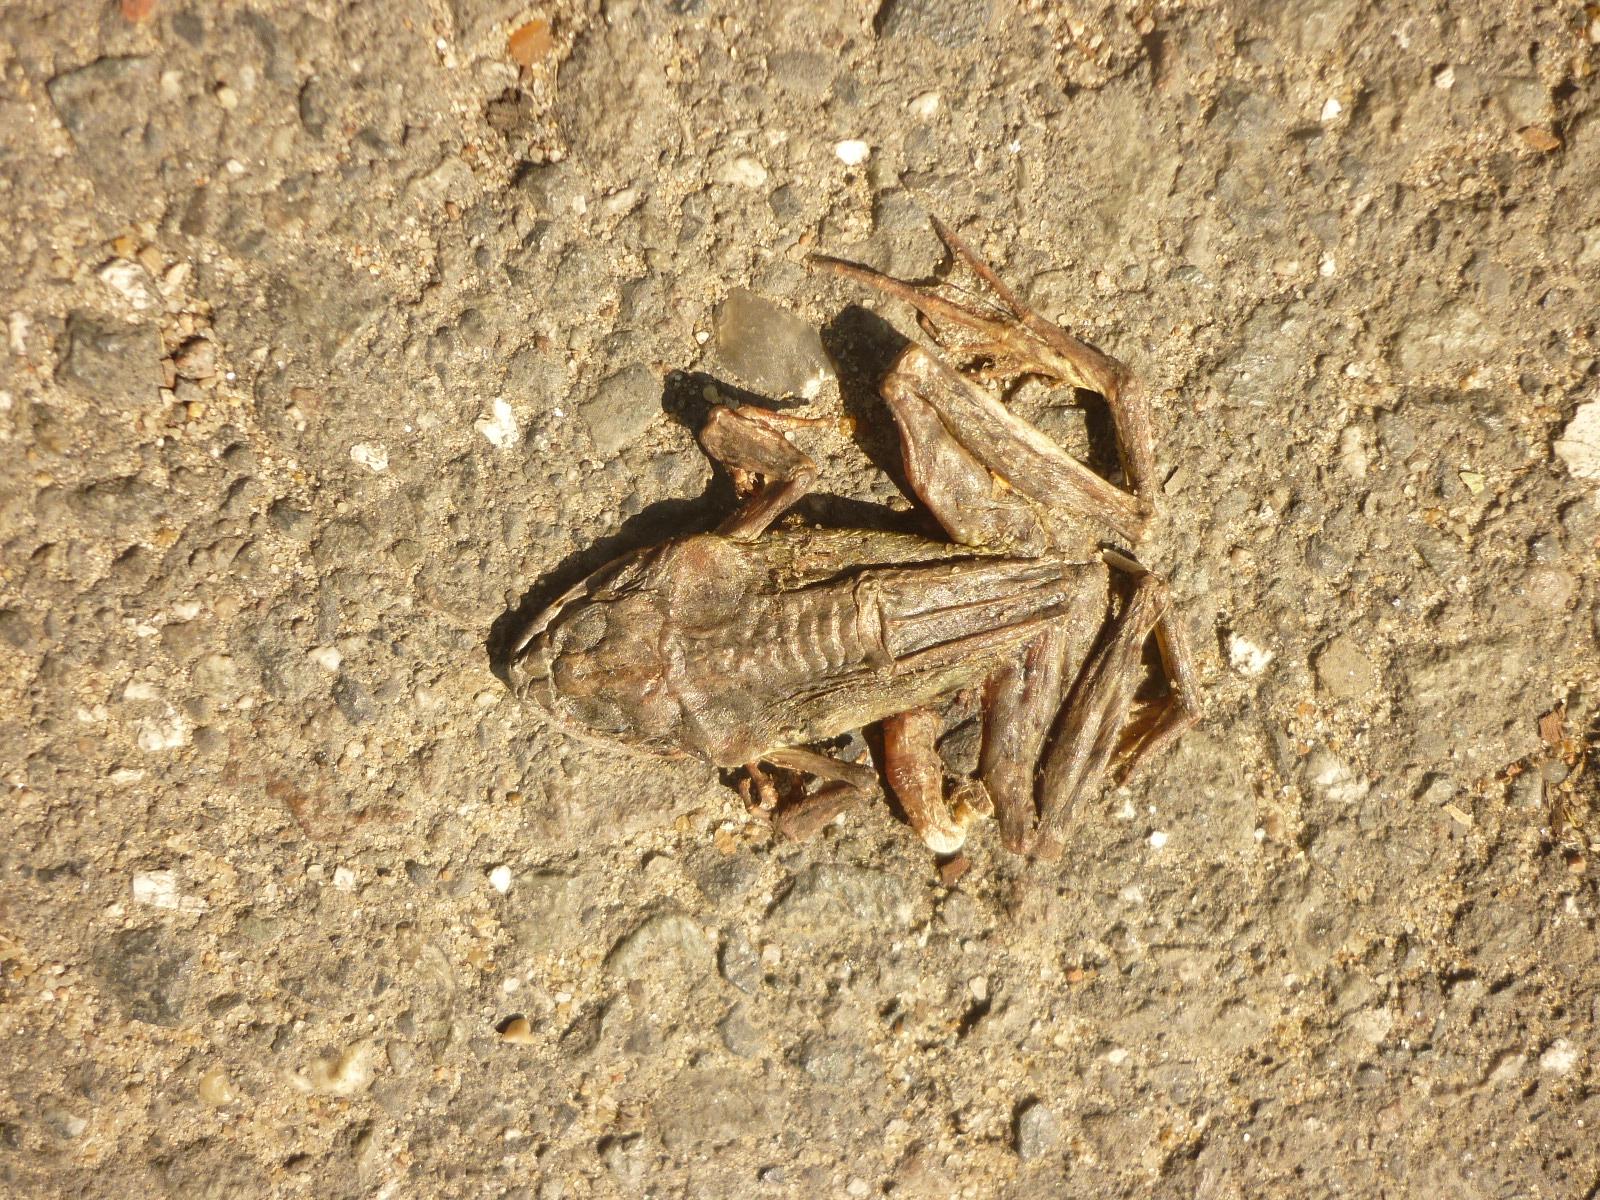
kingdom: Animalia
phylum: Chordata
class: Amphibia
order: Anura
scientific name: Anura
